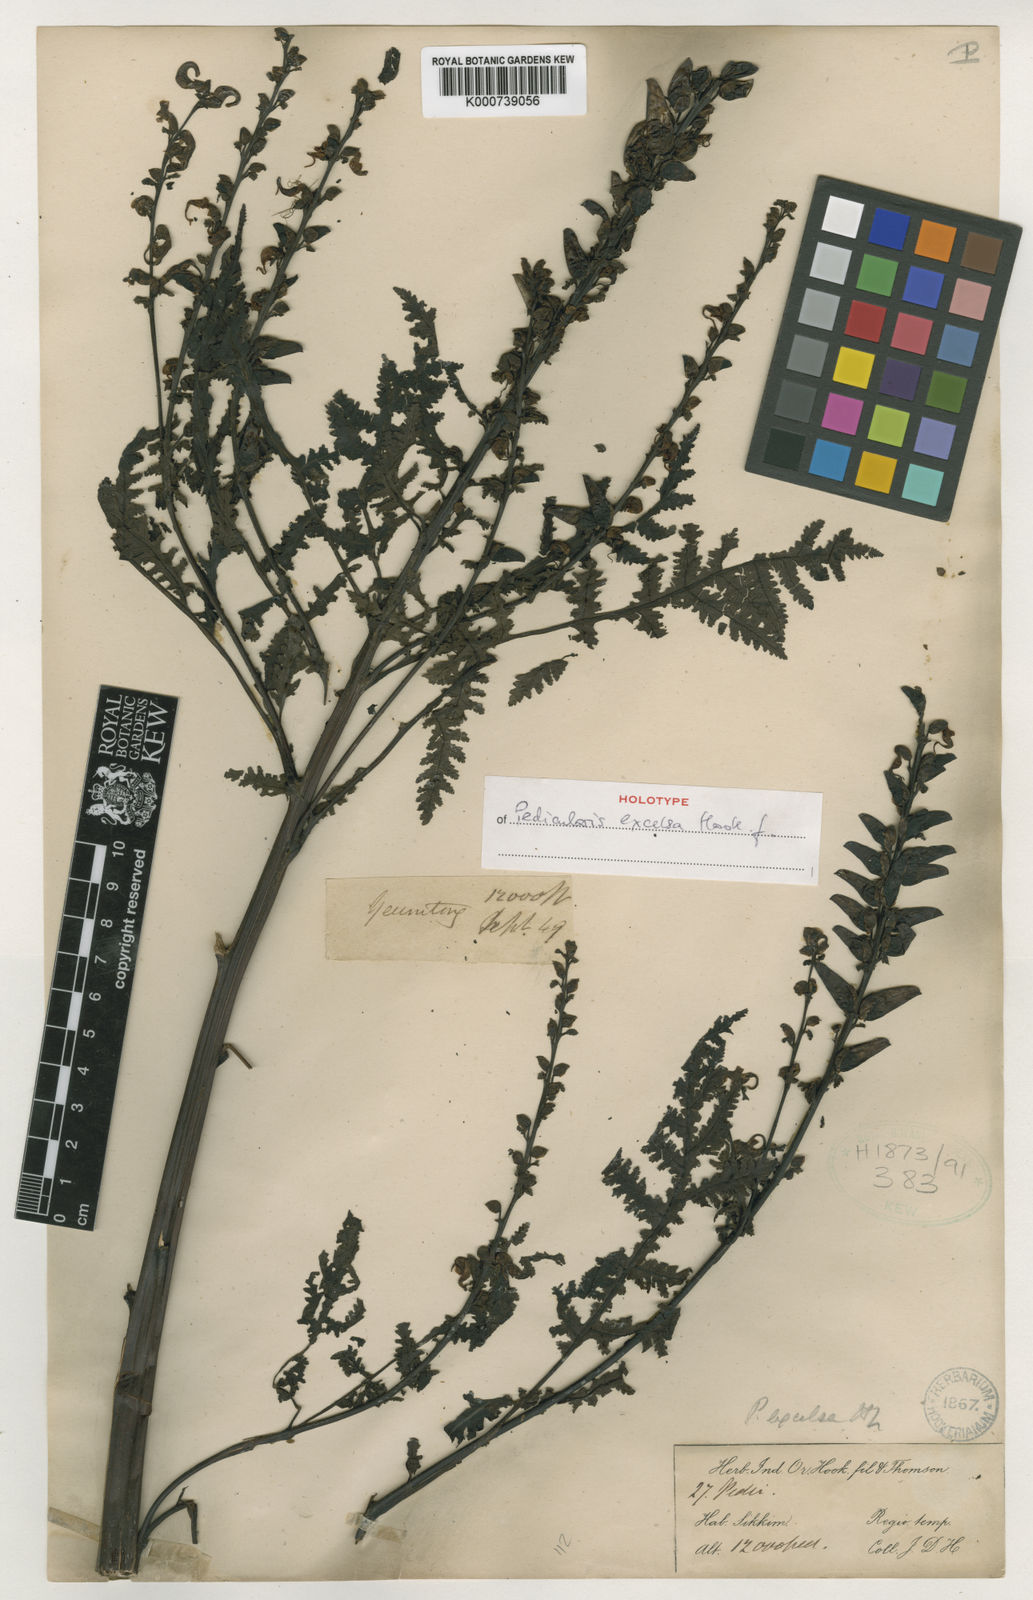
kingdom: Plantae
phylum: Tracheophyta
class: Magnoliopsida
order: Lamiales
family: Orobanchaceae
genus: Pedicularis
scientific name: Pedicularis excelsa
